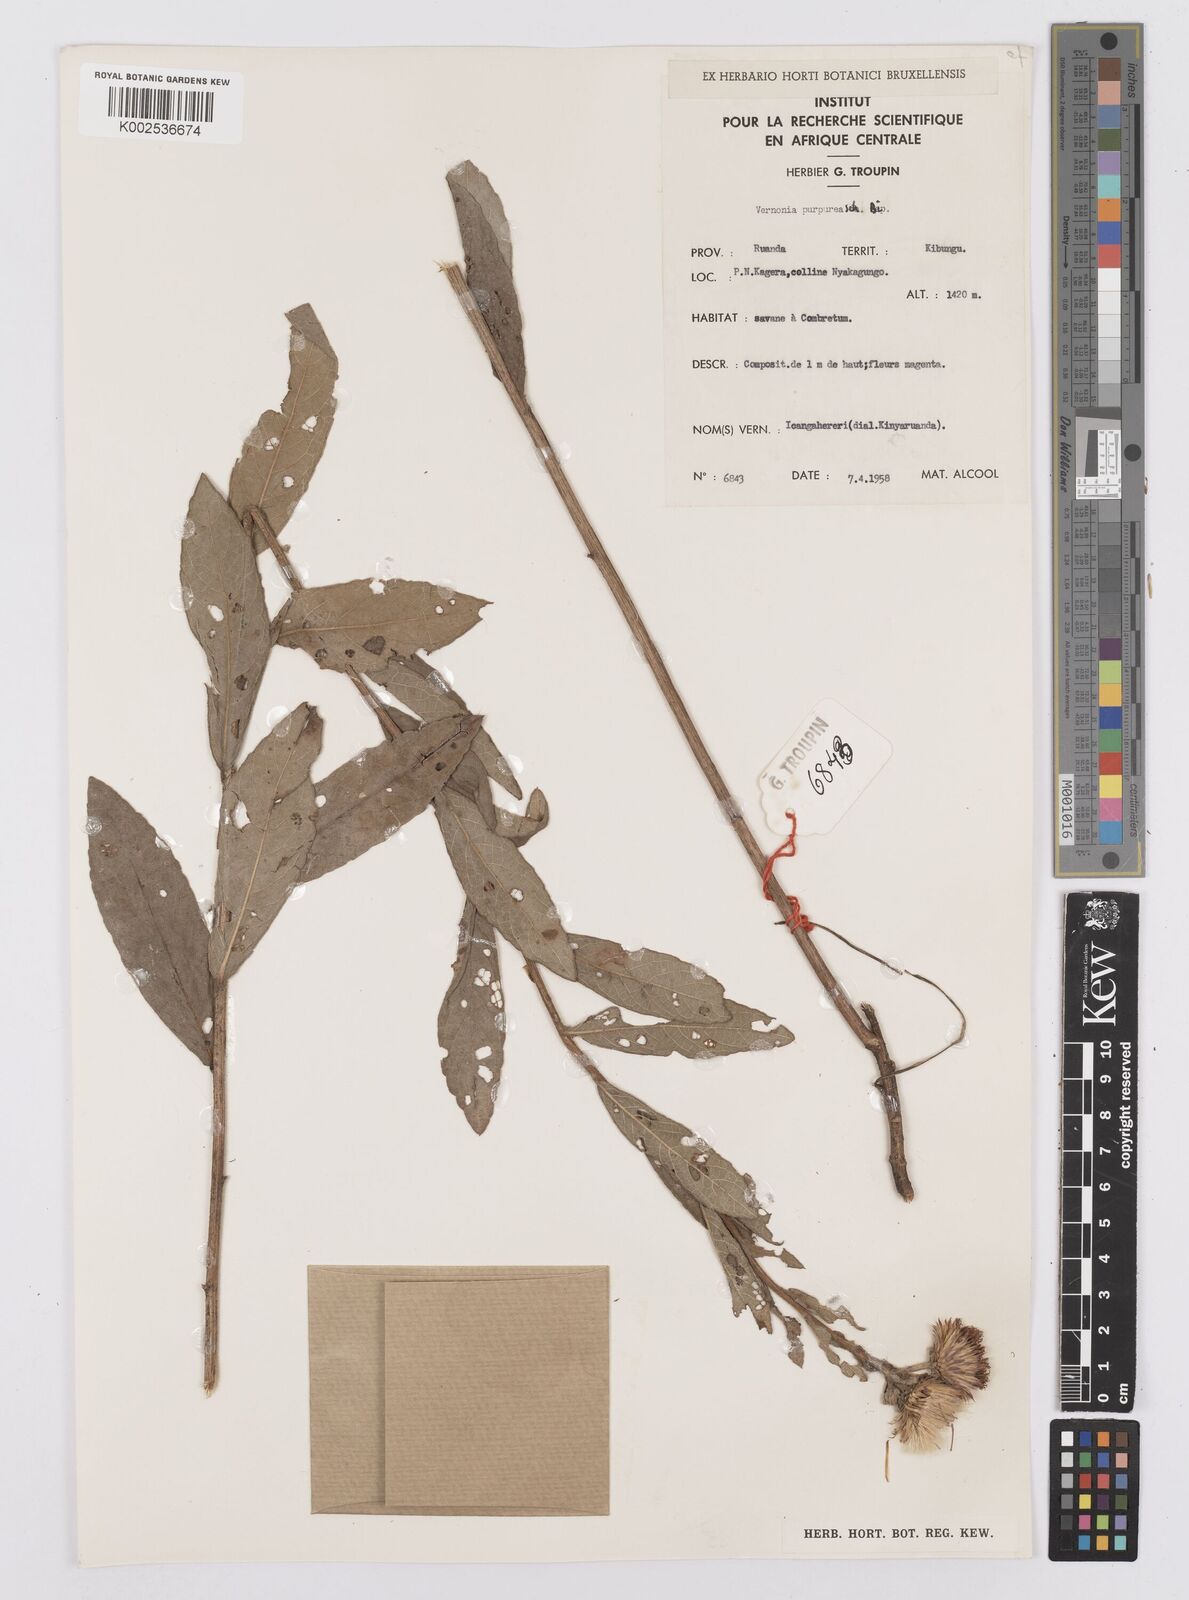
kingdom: Plantae
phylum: Tracheophyta
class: Magnoliopsida
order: Asterales
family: Asteraceae
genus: Nothovernonia
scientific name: Nothovernonia purpurea
